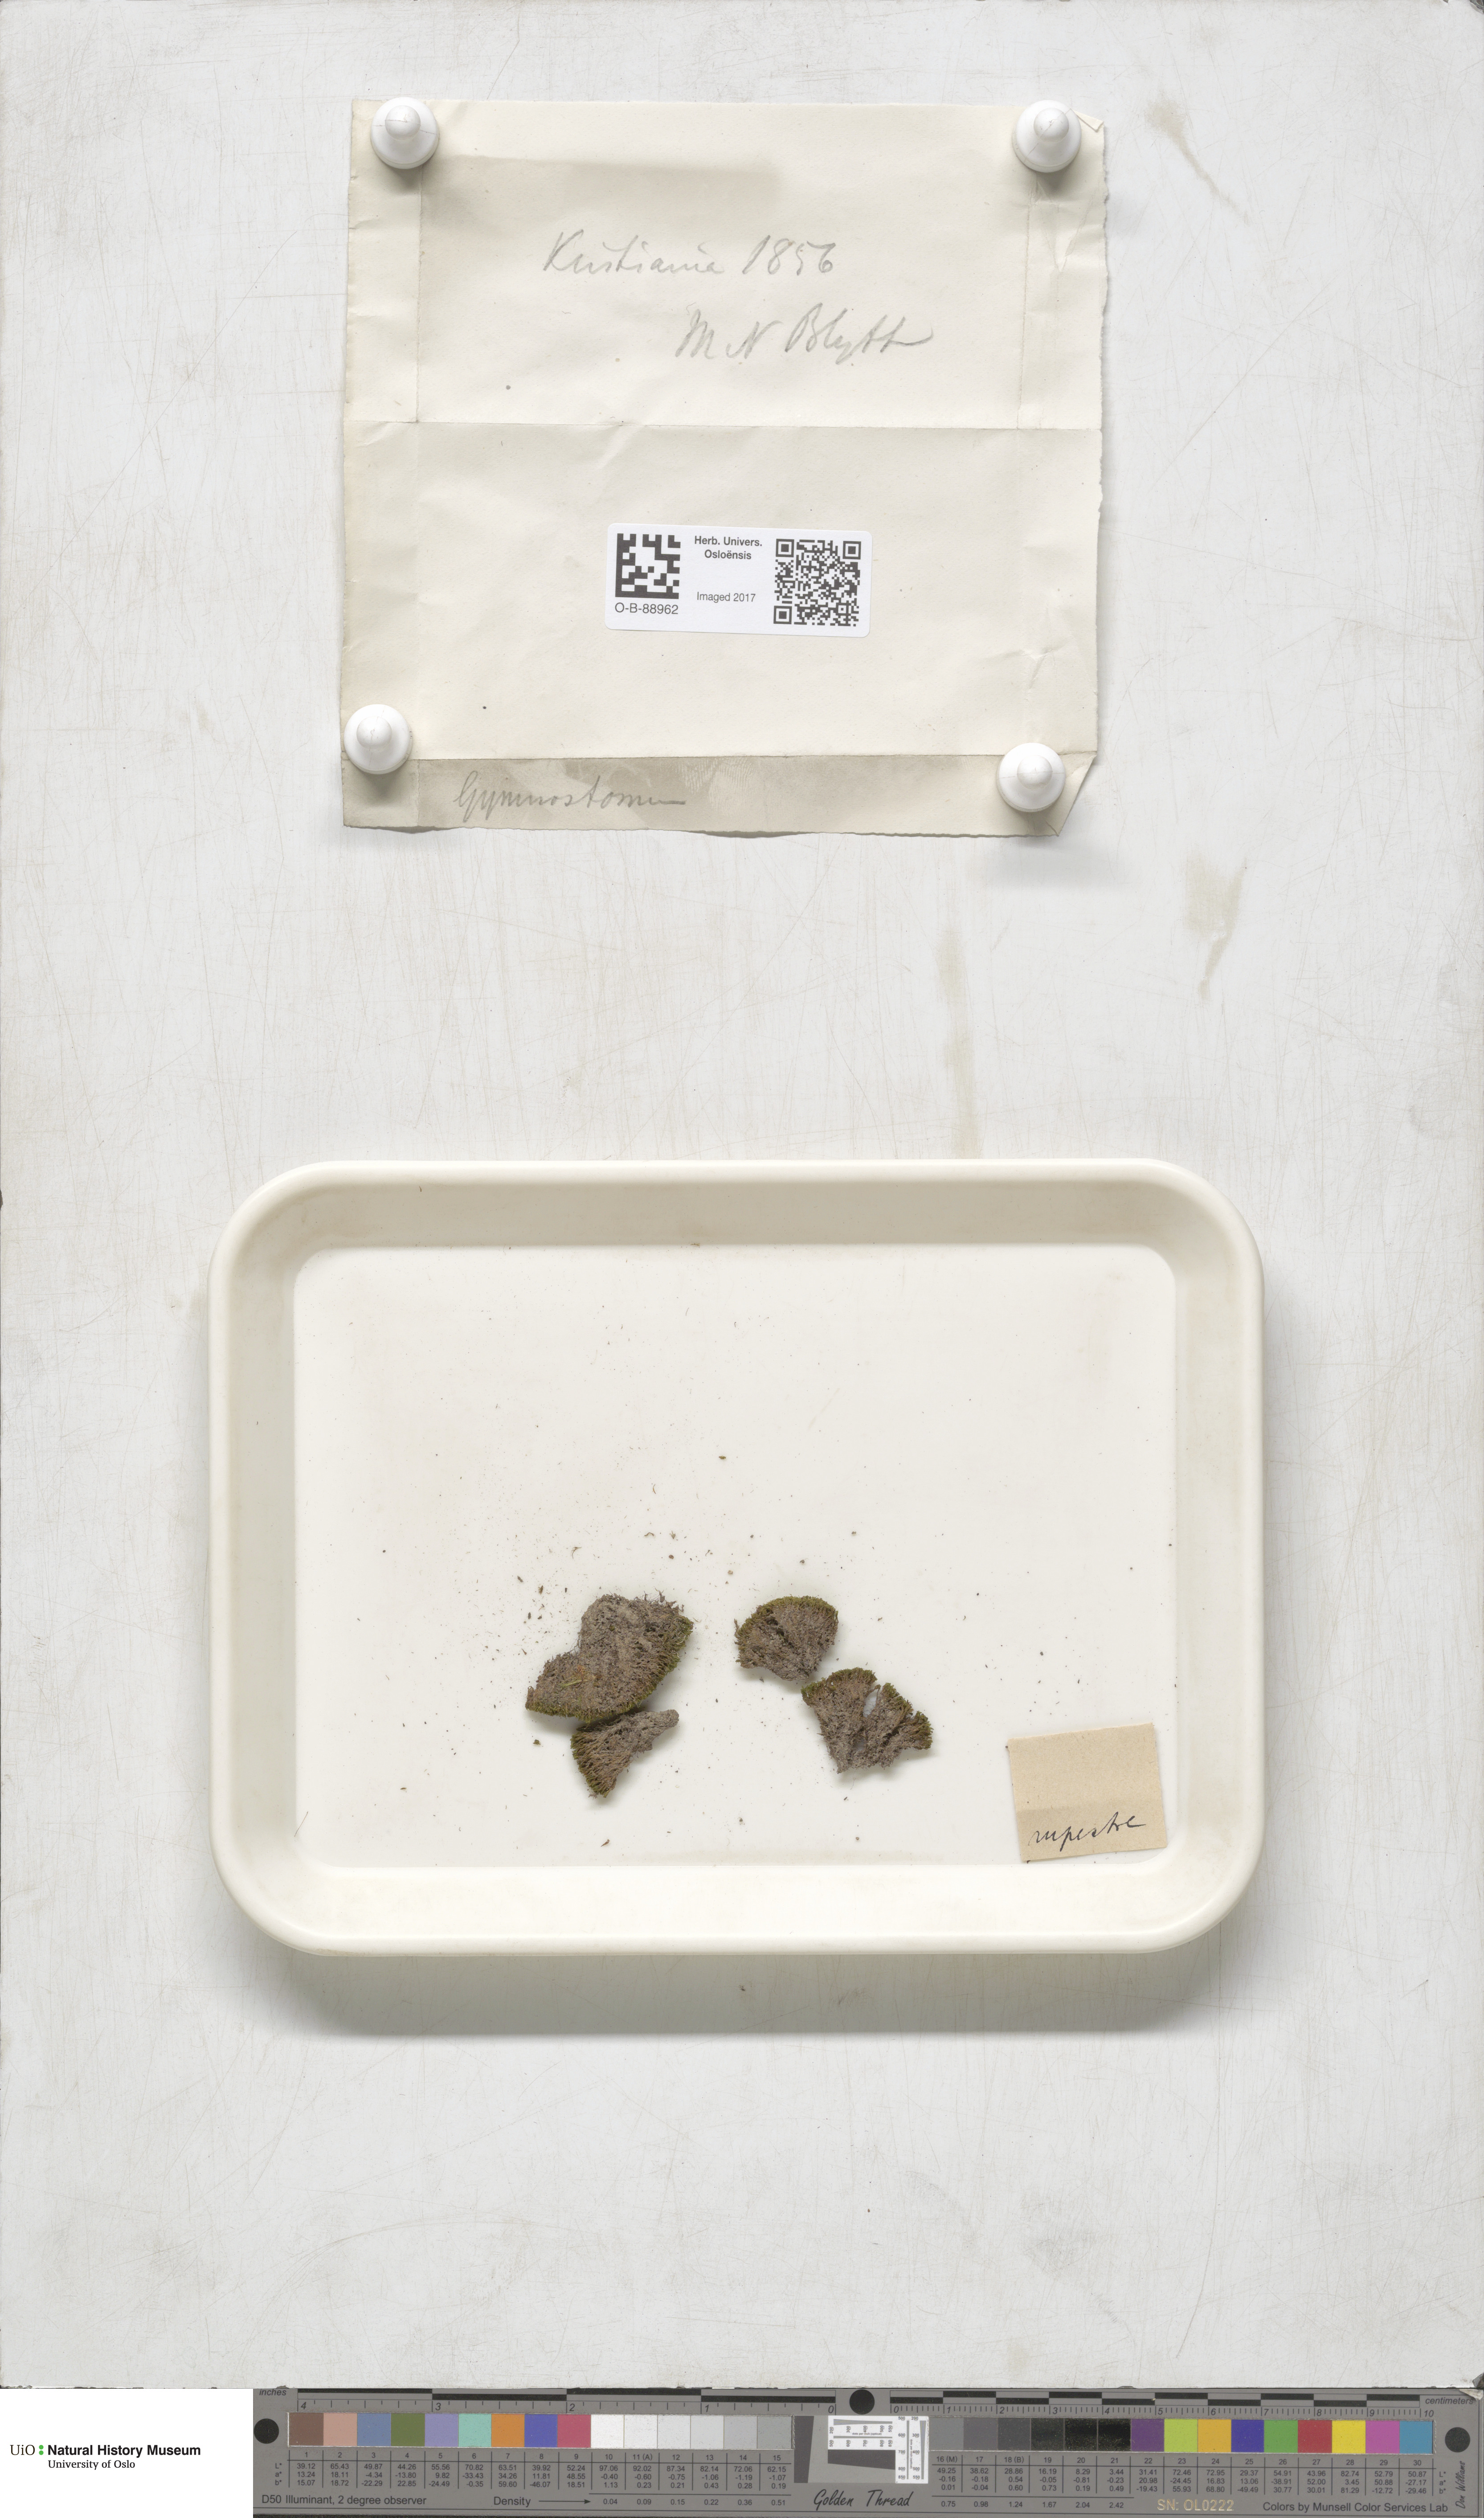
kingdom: Plantae
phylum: Bryophyta
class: Bryopsida
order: Pottiales
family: Pottiaceae
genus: Gymnostomum
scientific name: Gymnostomum aeruginosum
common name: Verdigris tufa-moss
